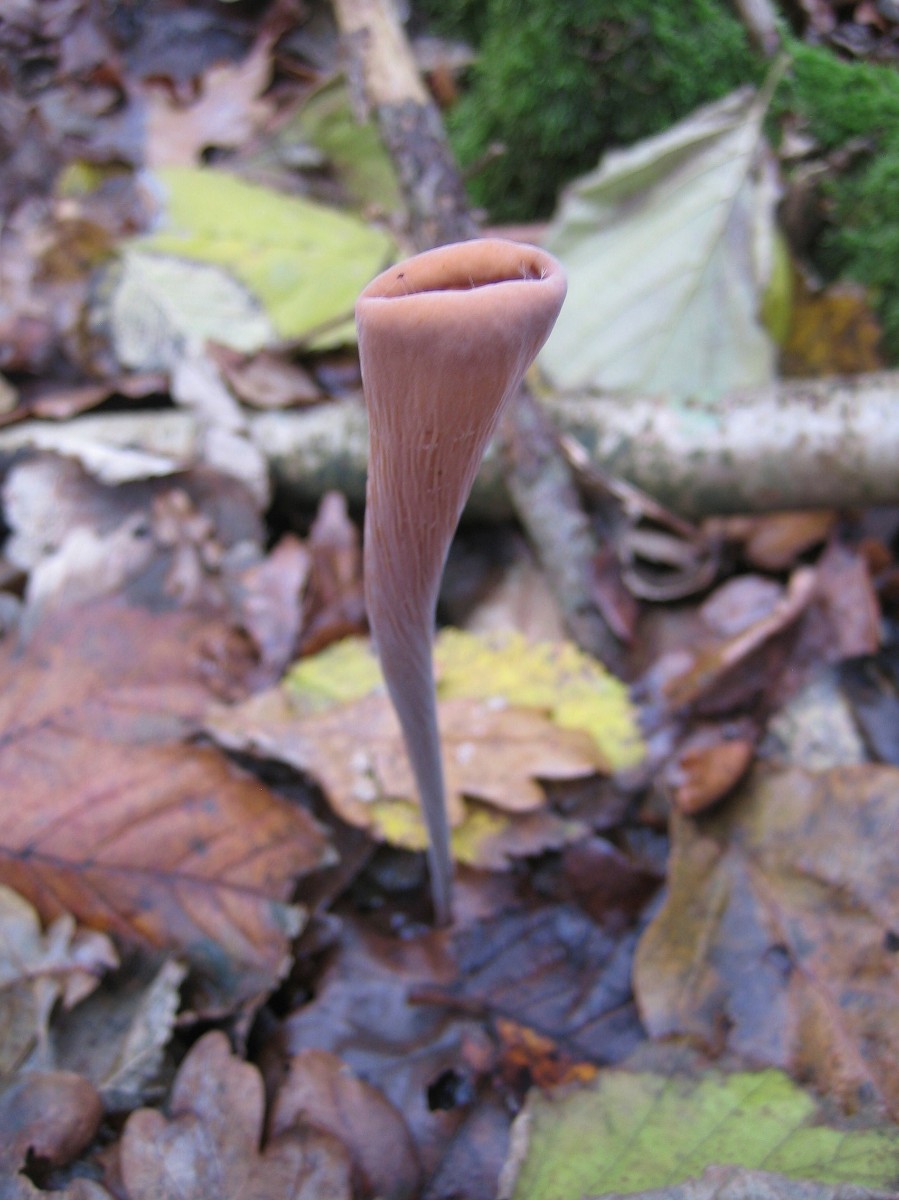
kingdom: Fungi
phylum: Basidiomycota
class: Agaricomycetes
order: Agaricales
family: Typhulaceae
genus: Typhula
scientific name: Typhula fistulosa
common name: pibet rørkølle
